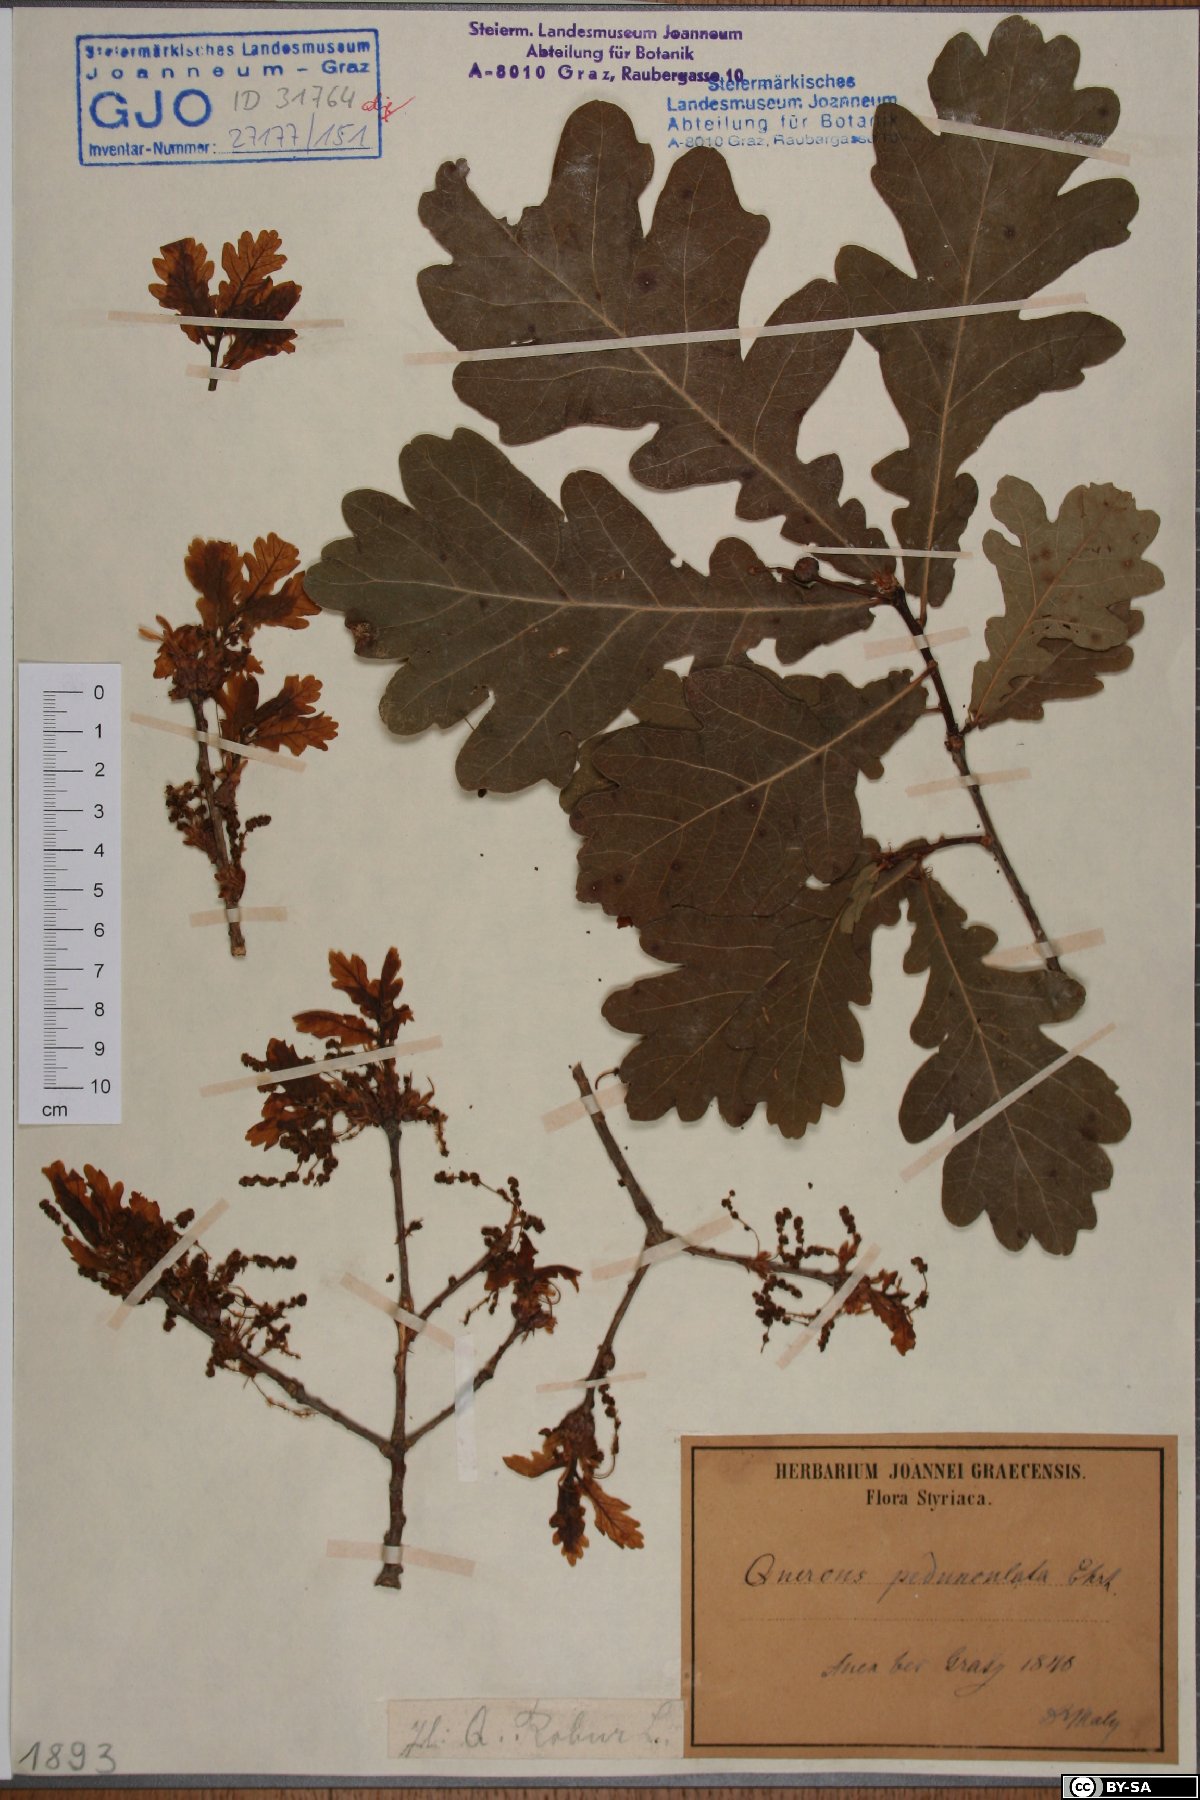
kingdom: Plantae
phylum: Tracheophyta
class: Magnoliopsida
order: Fagales
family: Fagaceae
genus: Quercus
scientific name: Quercus robur
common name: Pedunculate oak
